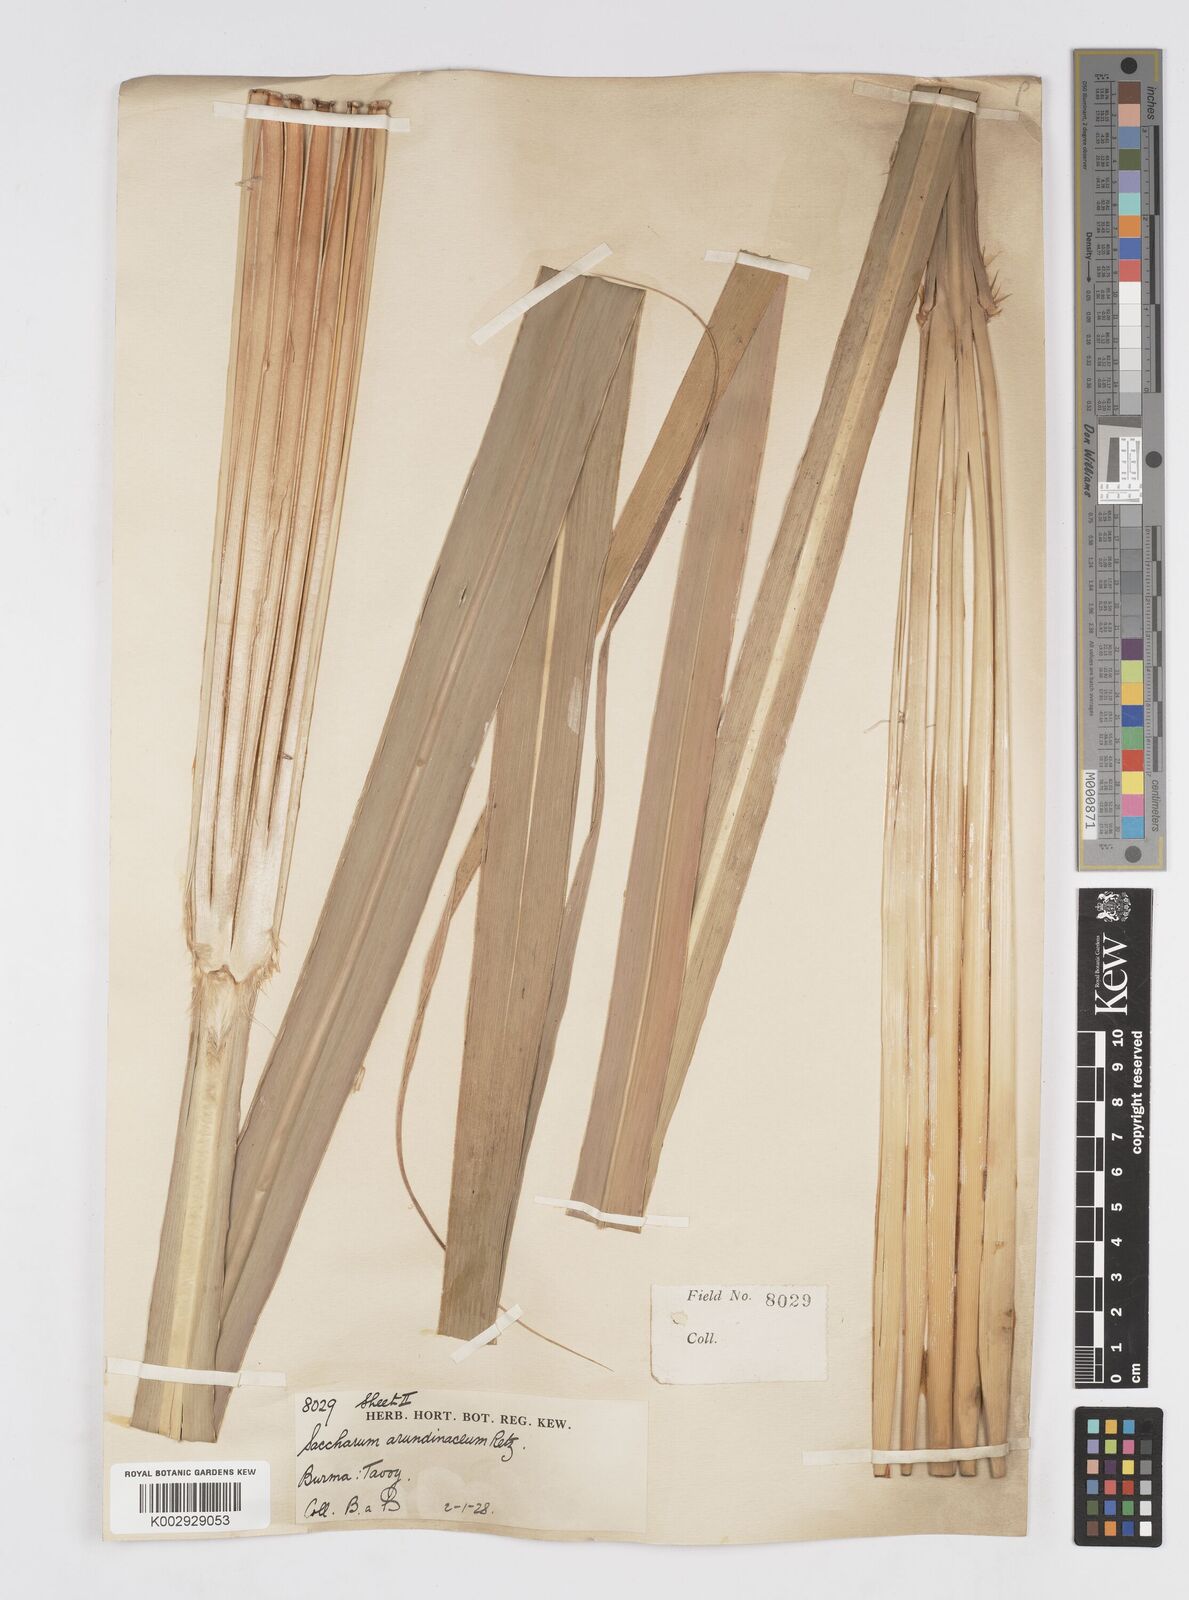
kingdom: Plantae
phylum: Tracheophyta
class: Liliopsida
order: Poales
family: Poaceae
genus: Saccharum
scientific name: Saccharum spontaneum
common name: Wild sugarcane
